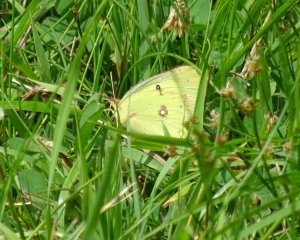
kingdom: Animalia
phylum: Arthropoda
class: Insecta
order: Lepidoptera
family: Pieridae
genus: Colias
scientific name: Colias philodice
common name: Clouded Sulphur
